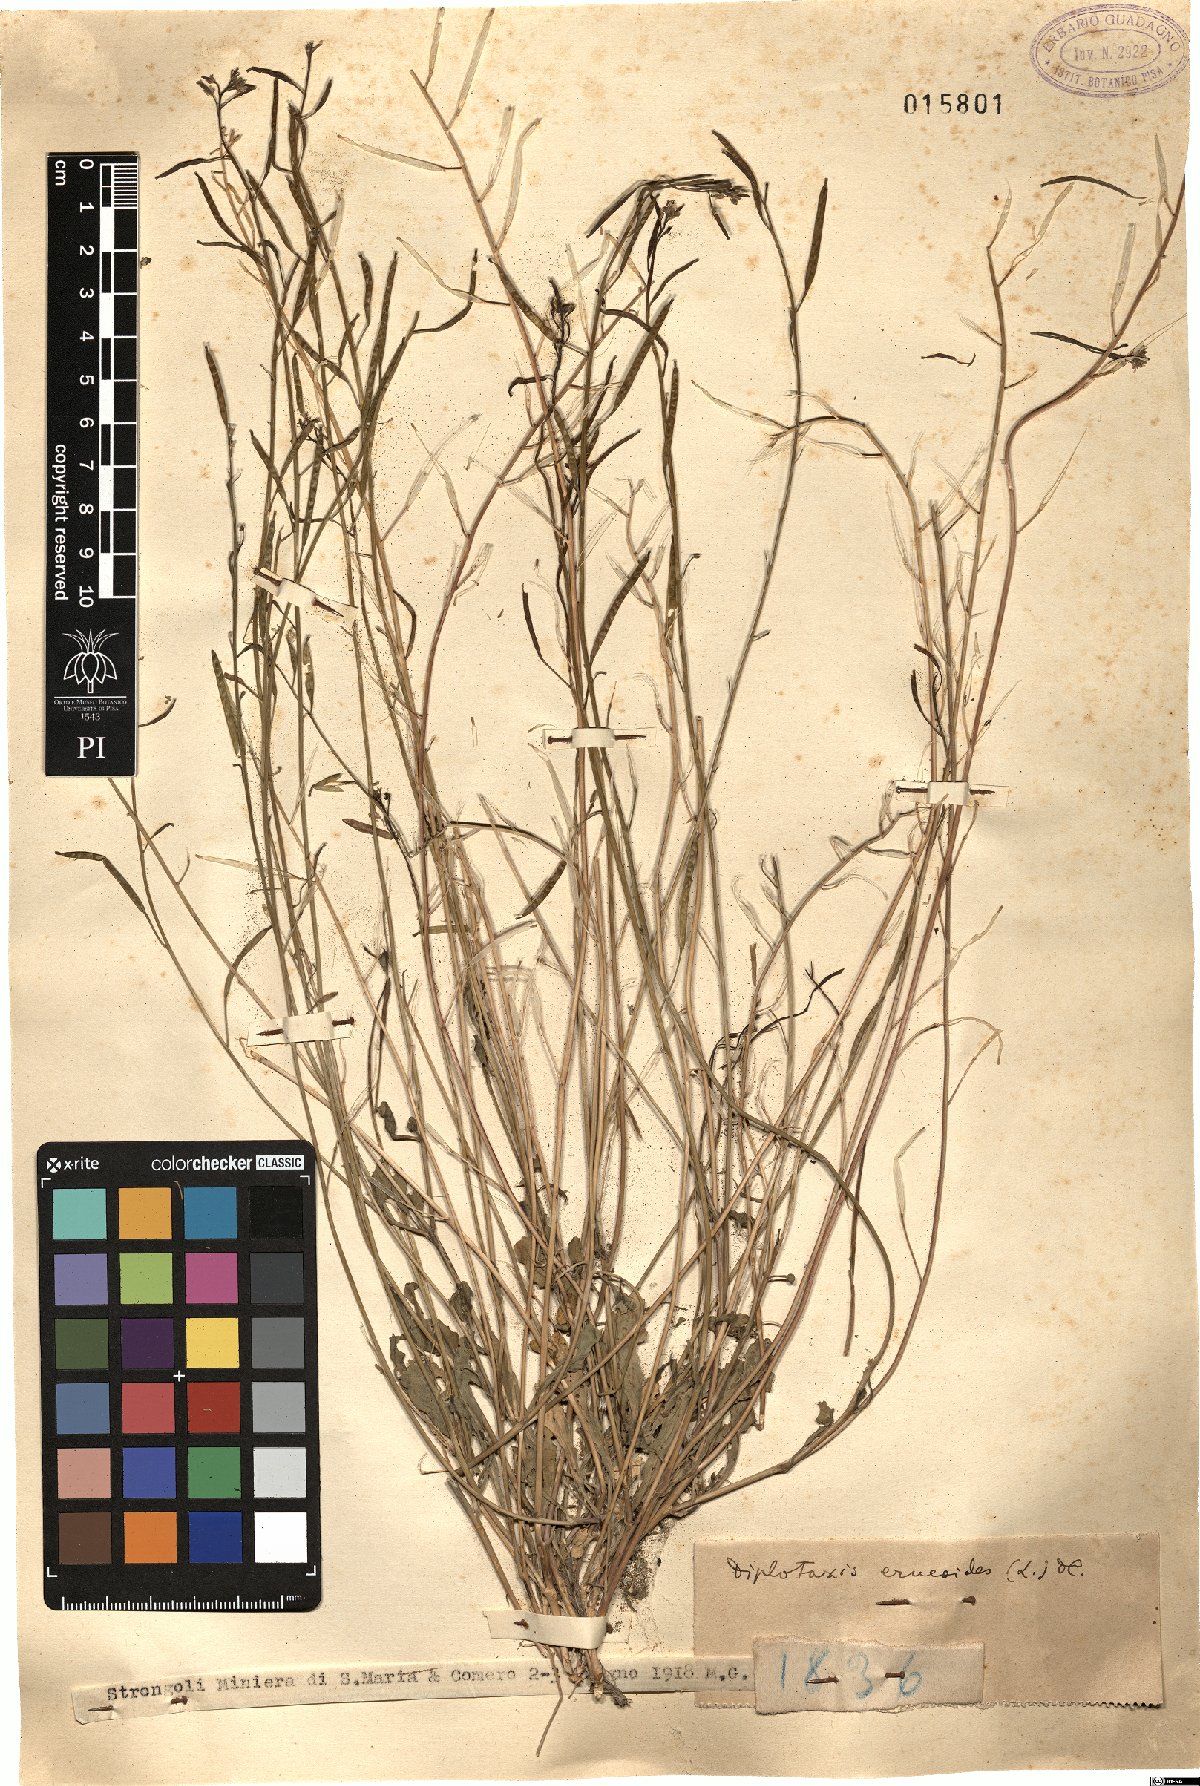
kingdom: Plantae
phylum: Tracheophyta
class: Magnoliopsida
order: Brassicales
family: Brassicaceae
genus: Diplotaxis
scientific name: Diplotaxis erucoides
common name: White rocket
